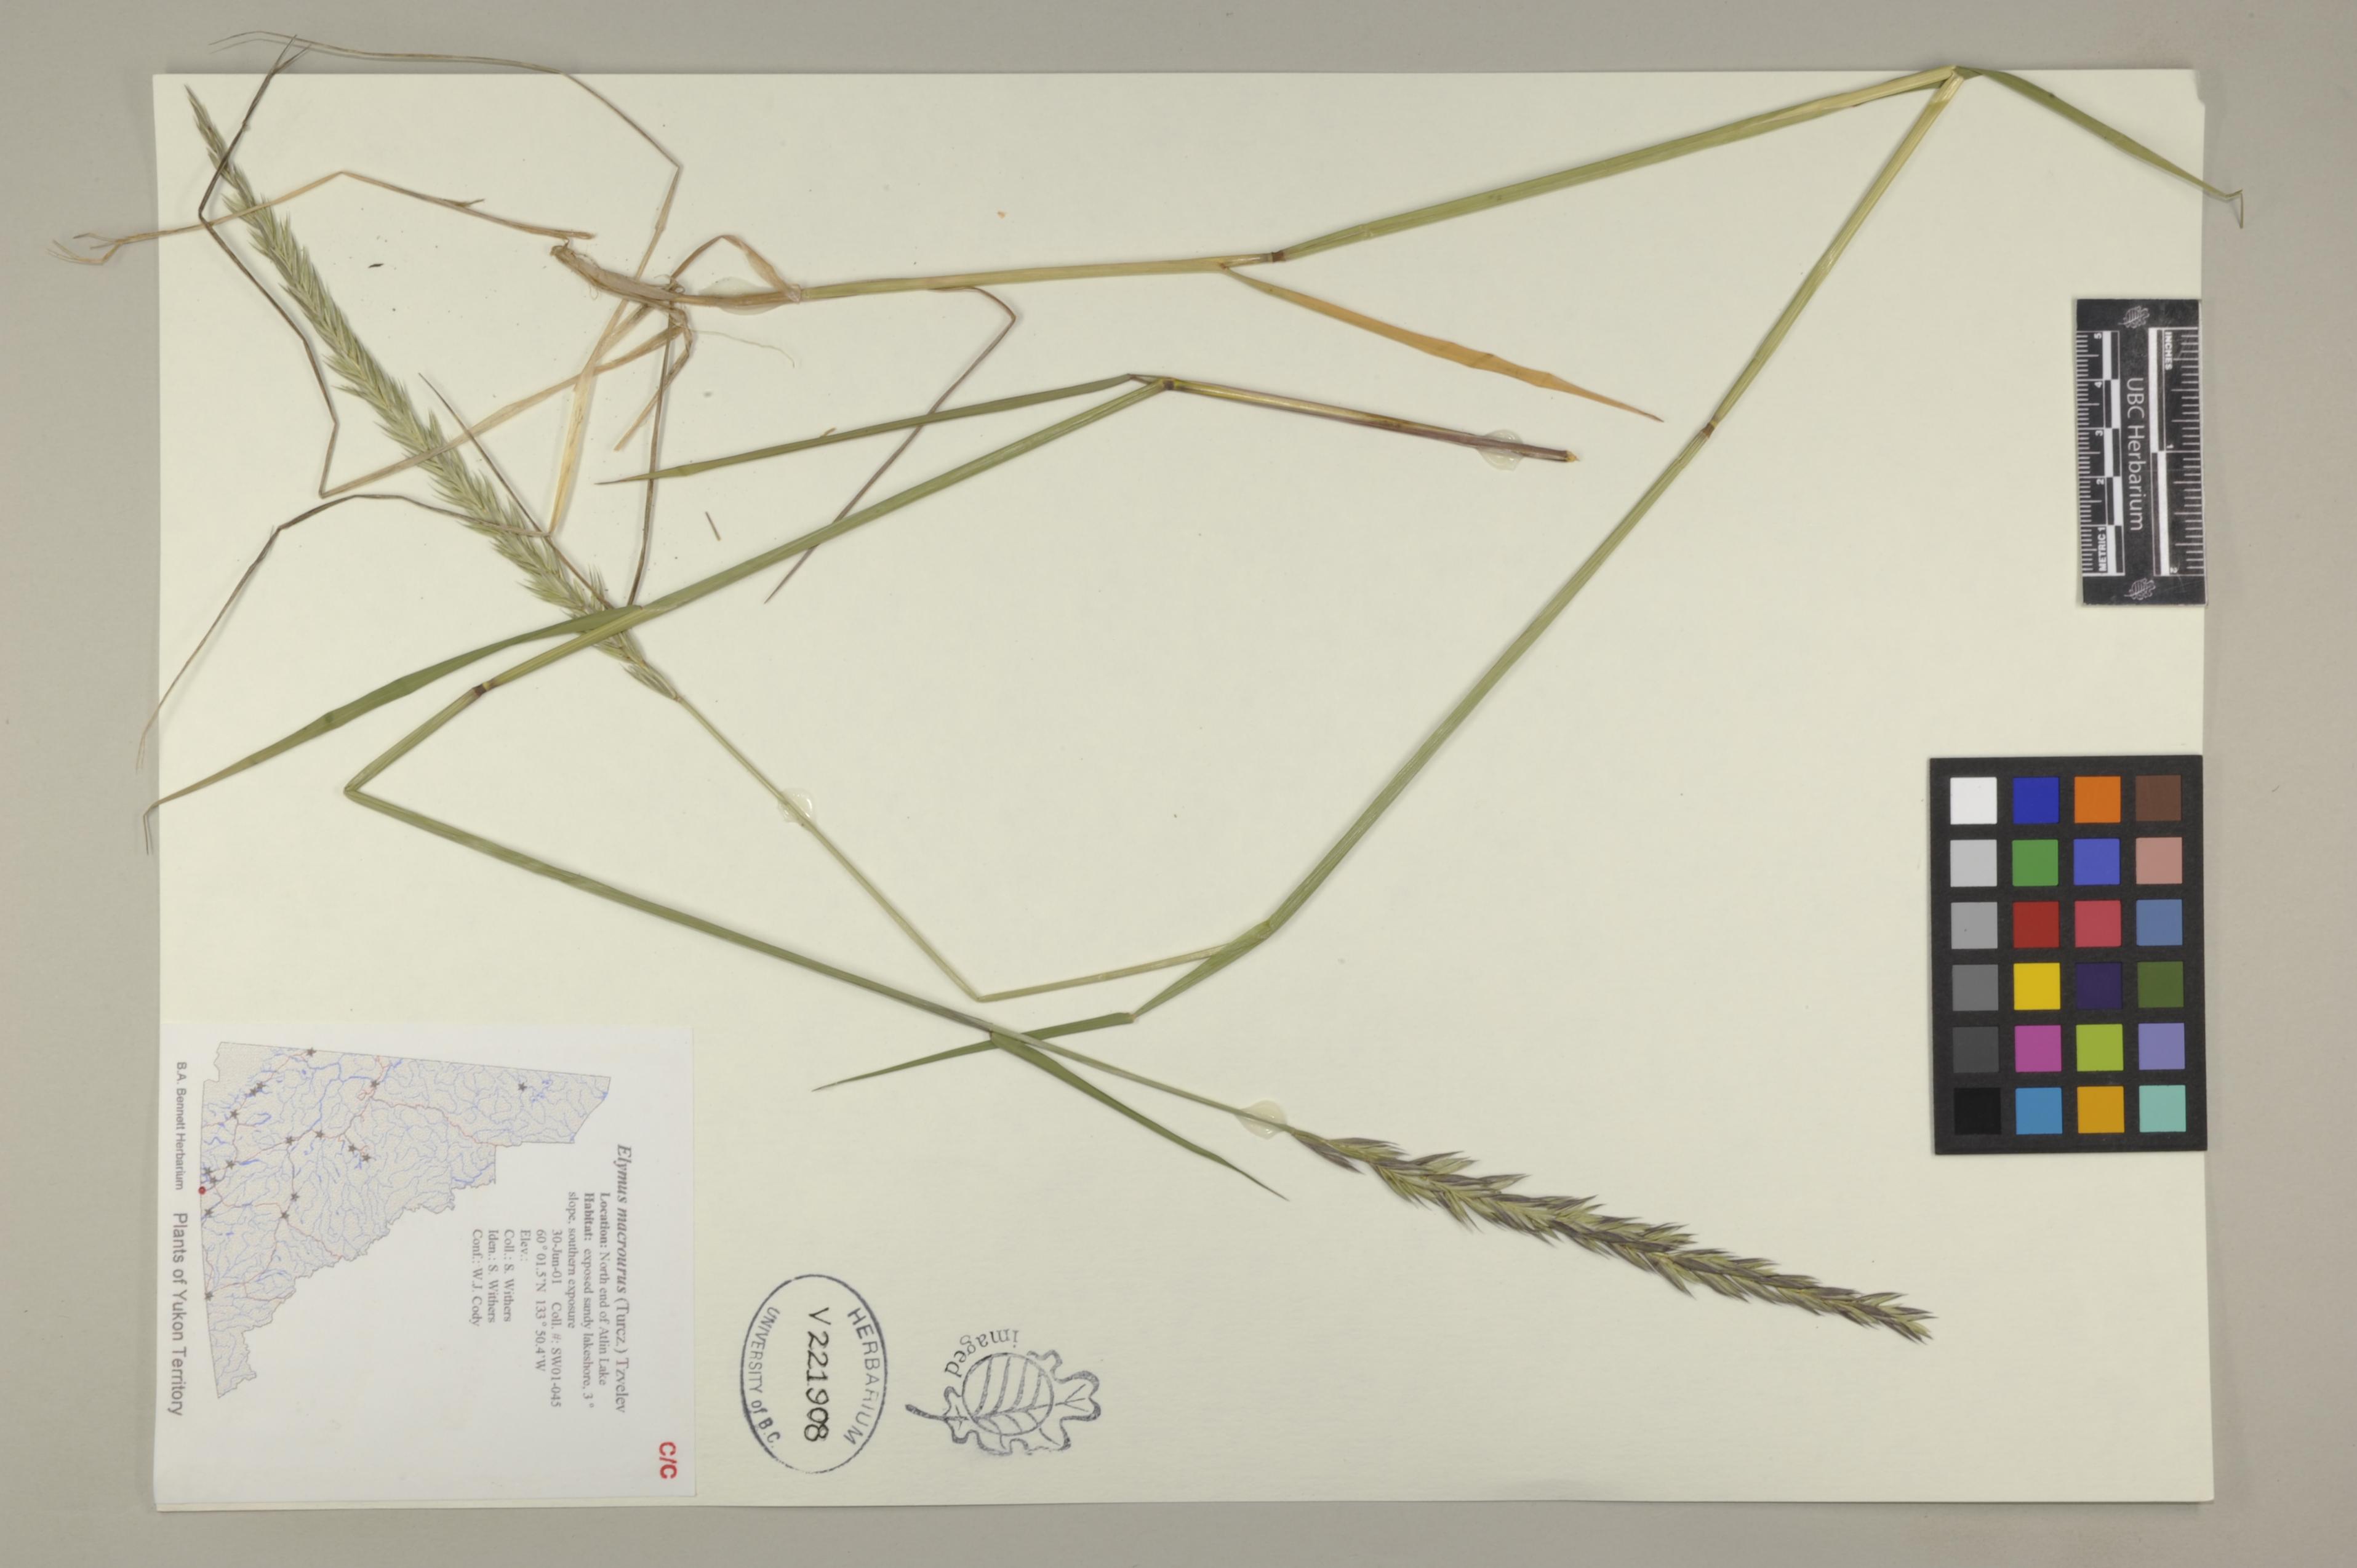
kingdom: Plantae
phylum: Tracheophyta
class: Liliopsida
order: Poales
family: Poaceae
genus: Elymus
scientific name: Elymus alaskanus
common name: Alaska wheatgrass
